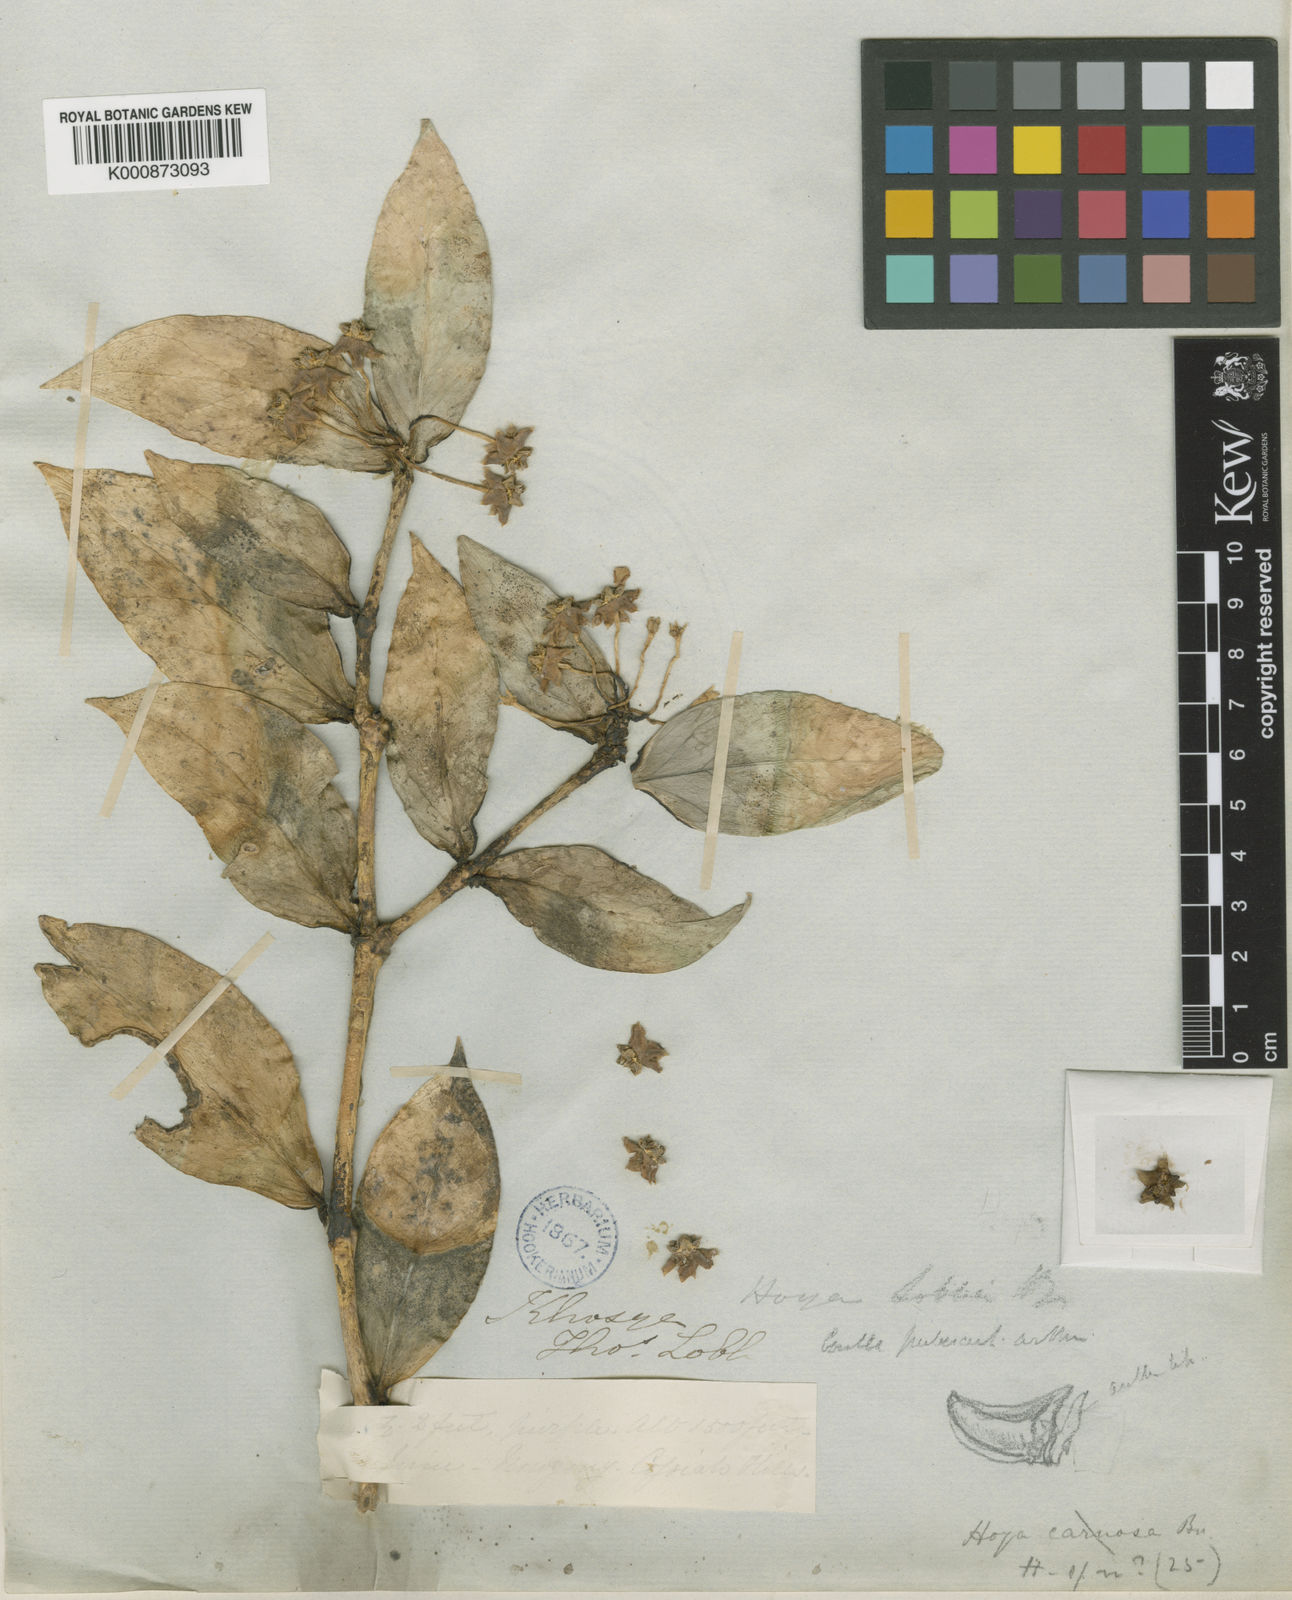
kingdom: Plantae
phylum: Tracheophyta
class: Magnoliopsida
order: Gentianales
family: Apocynaceae
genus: Hoya
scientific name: Hoya lobbii
